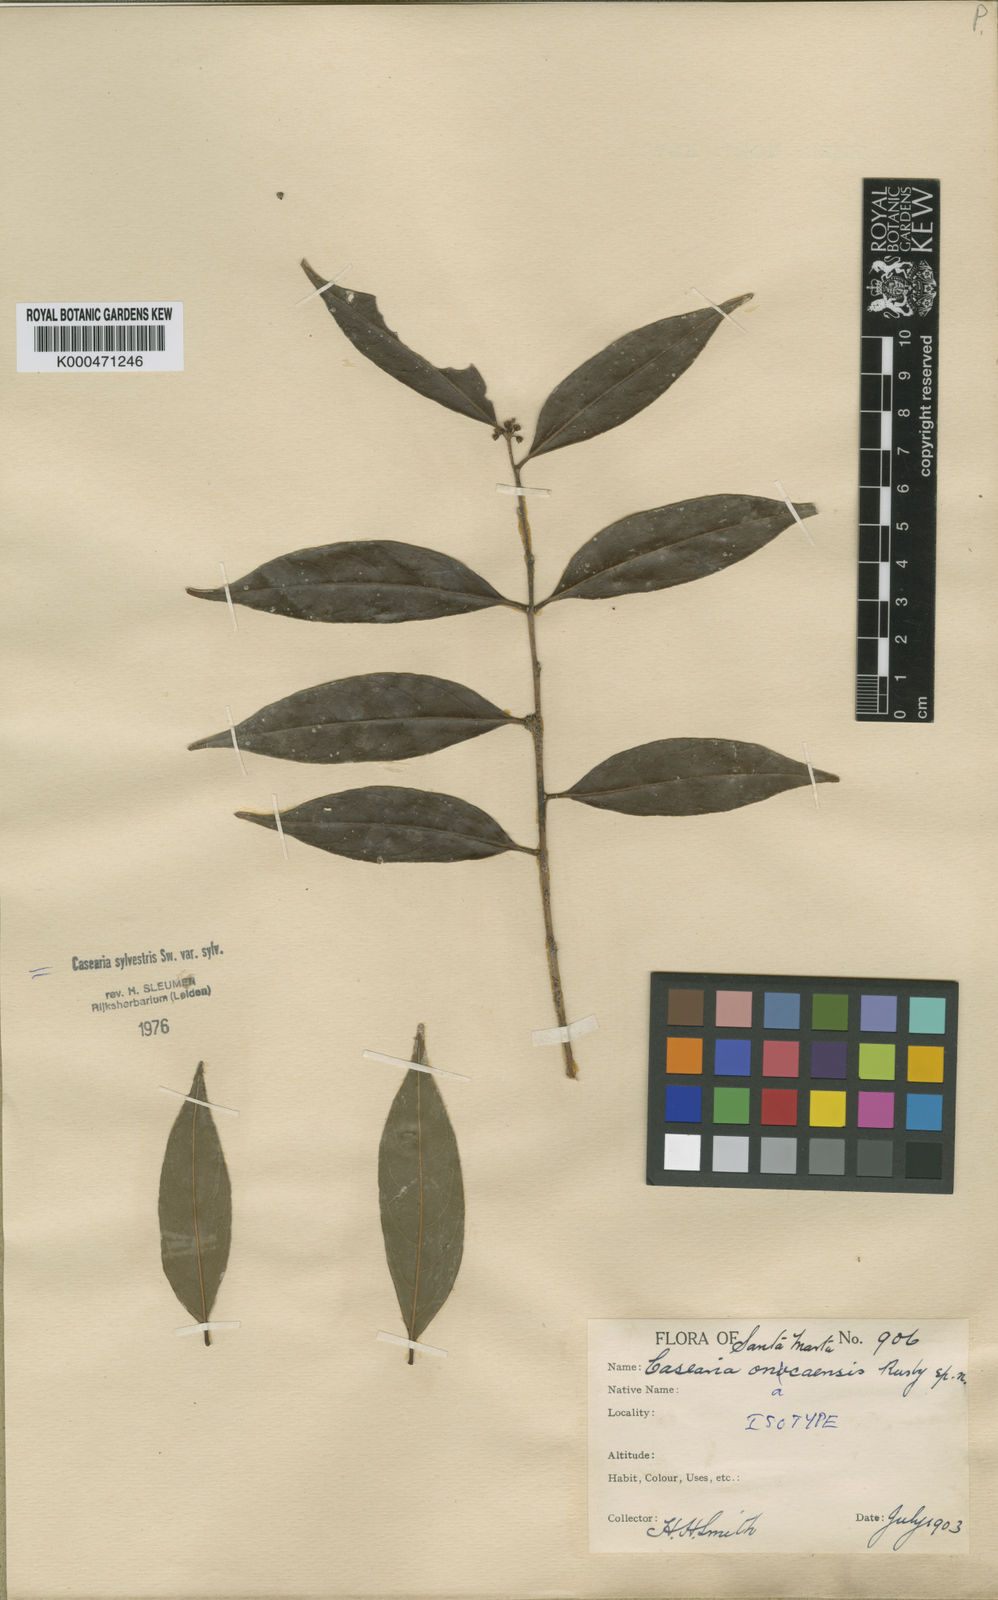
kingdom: Plantae
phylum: Tracheophyta
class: Magnoliopsida
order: Malpighiales
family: Salicaceae
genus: Casearia
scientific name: Casearia sylvestris
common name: Wild sage
